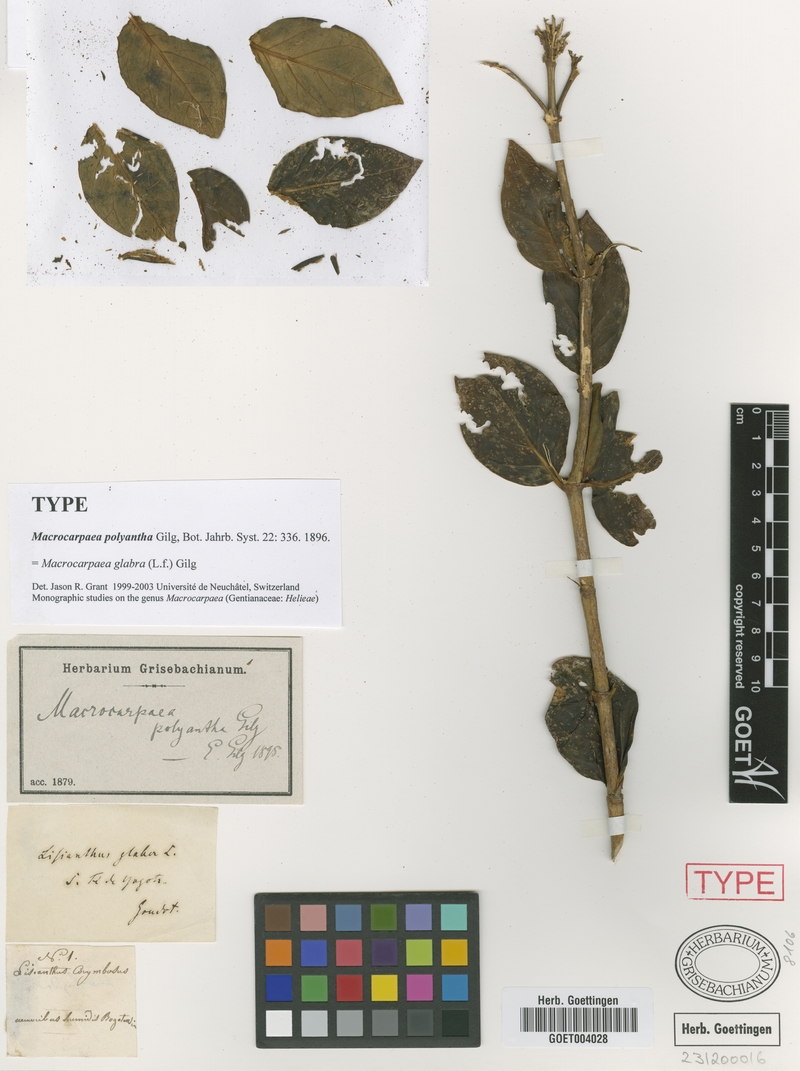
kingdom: Plantae
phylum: Tracheophyta
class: Magnoliopsida
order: Gentianales
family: Gentianaceae
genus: Macrocarpaea
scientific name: Macrocarpaea glabra
